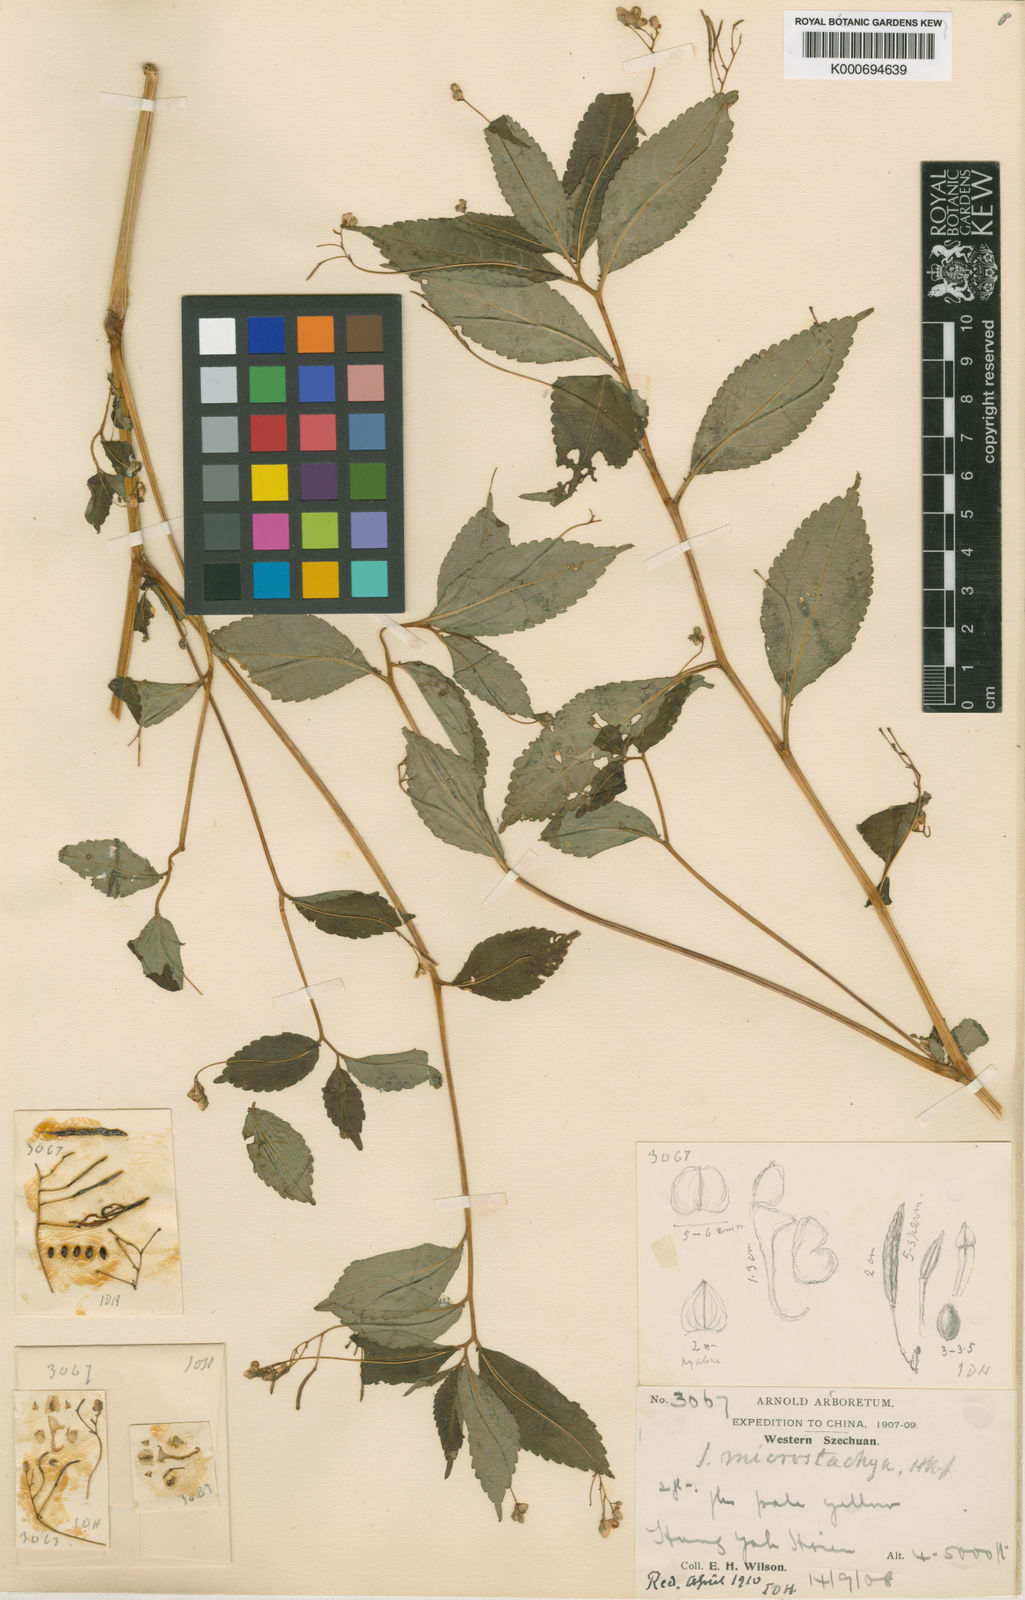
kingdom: Plantae
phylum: Tracheophyta
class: Magnoliopsida
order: Ericales
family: Balsaminaceae
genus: Impatiens
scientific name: Impatiens
